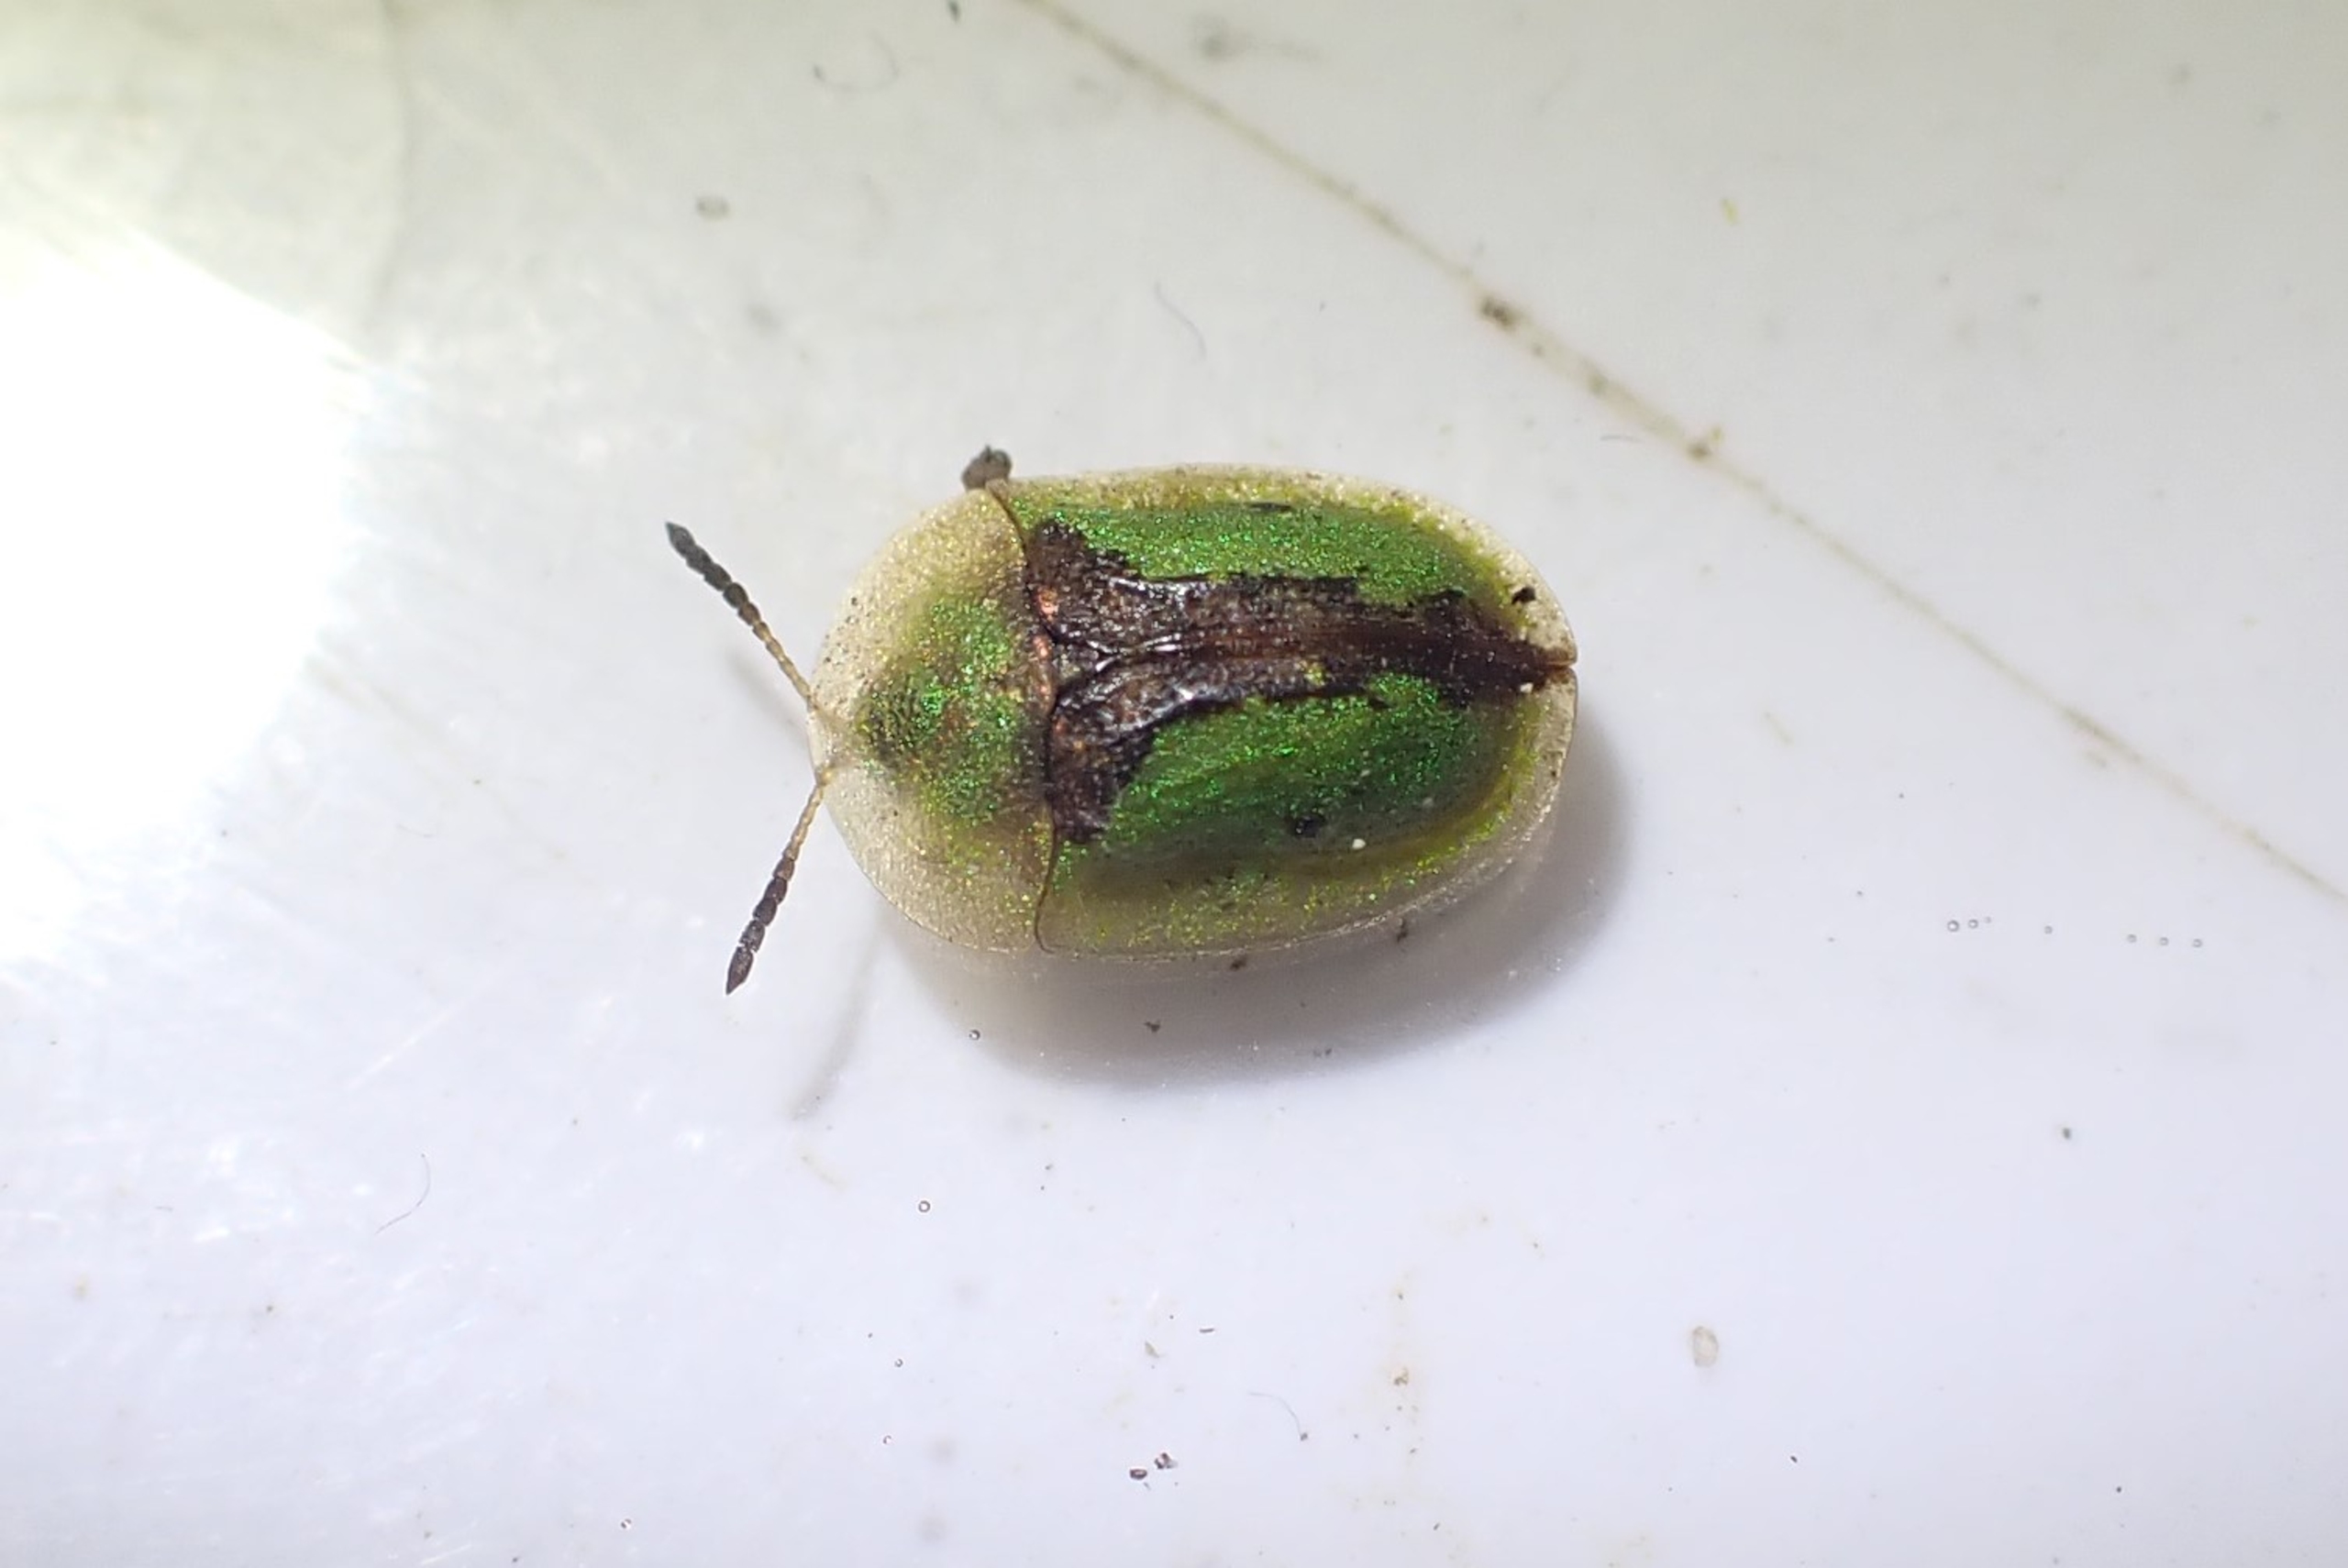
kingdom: Animalia
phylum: Arthropoda
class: Insecta
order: Coleoptera
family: Chrysomelidae
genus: Cassida
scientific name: Cassida vibex
